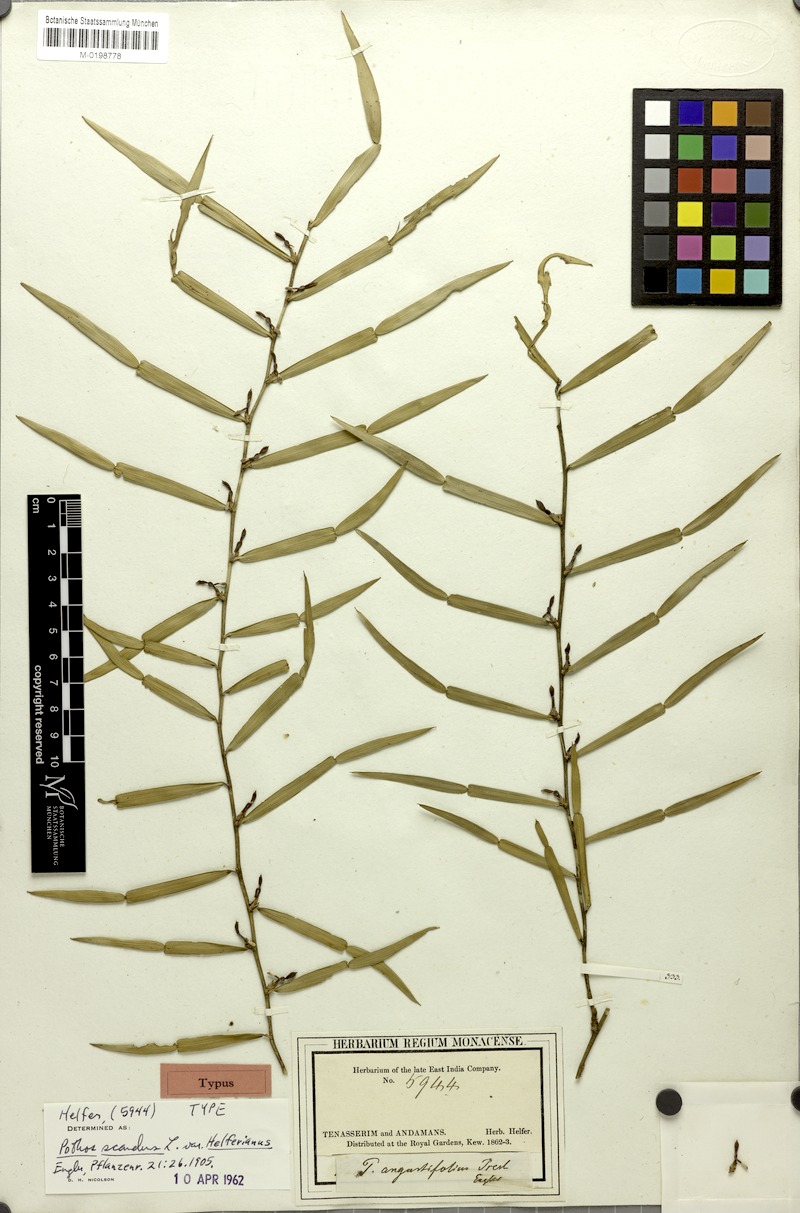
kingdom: Plantae
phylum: Tracheophyta
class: Liliopsida
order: Alismatales
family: Araceae
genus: Pothos
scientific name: Pothos scandens
